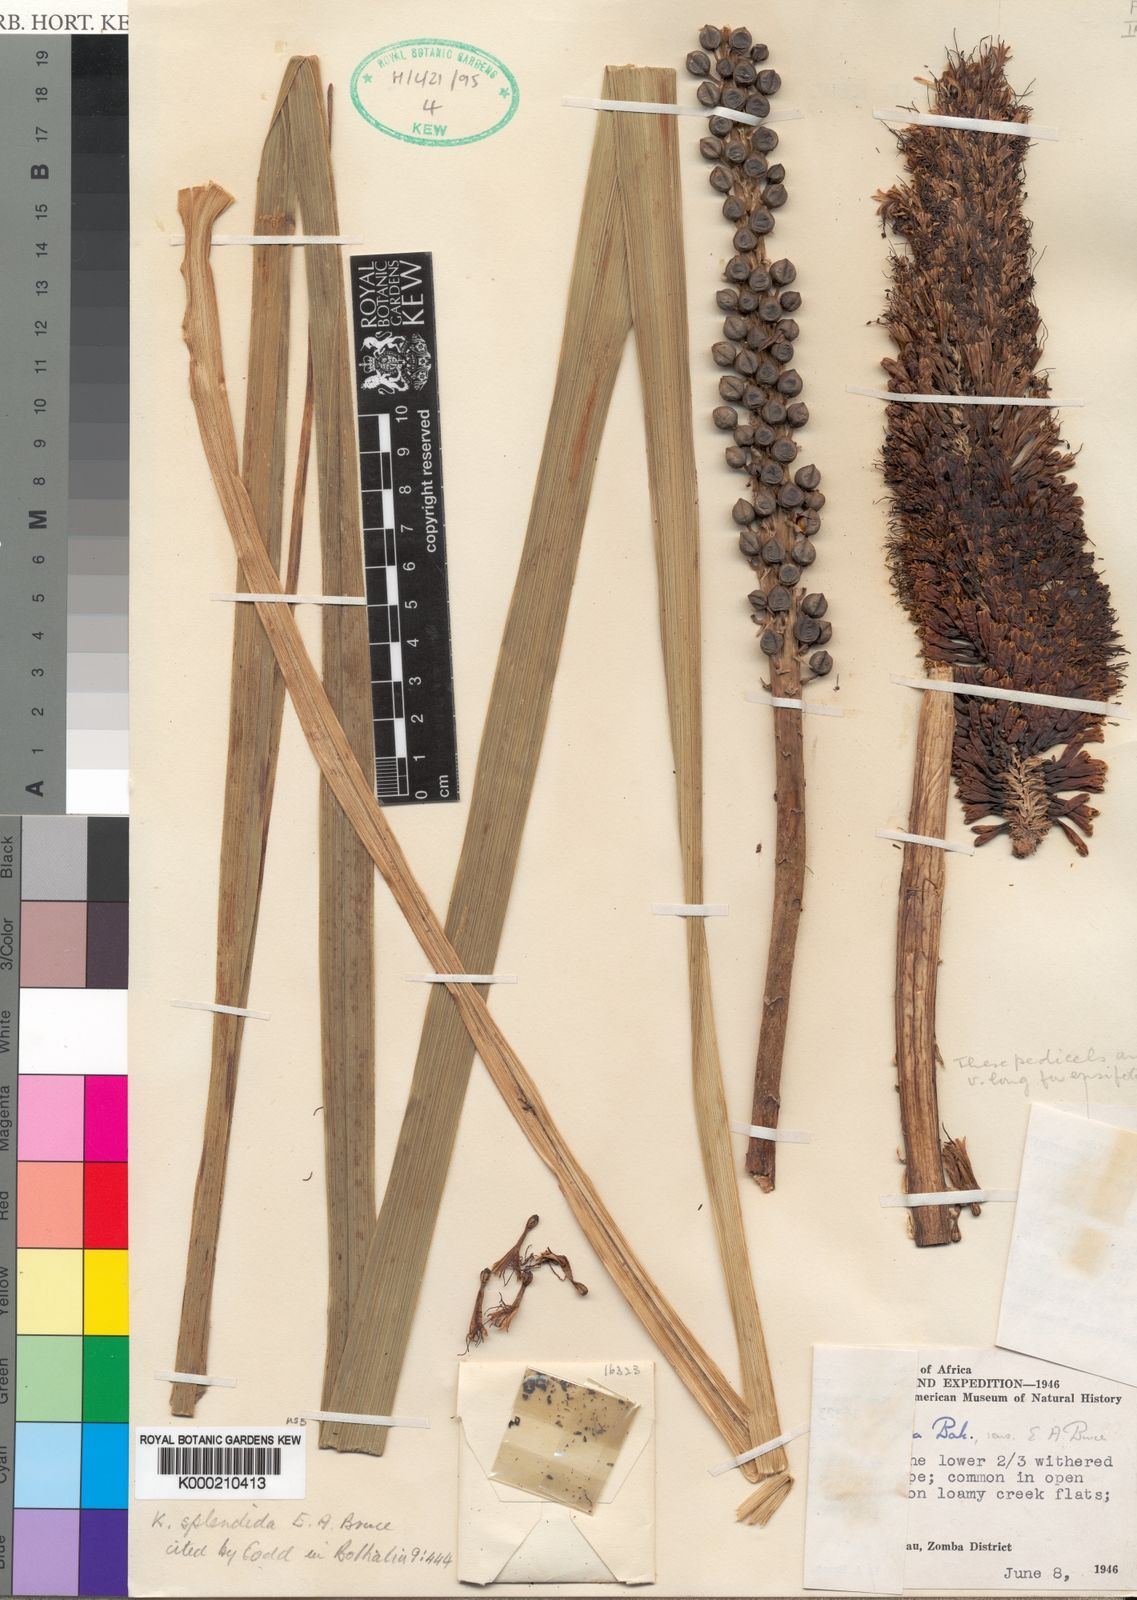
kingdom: Plantae
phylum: Tracheophyta
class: Liliopsida
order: Asparagales
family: Asphodelaceae
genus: Kniphofia
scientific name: Kniphofia splendida
